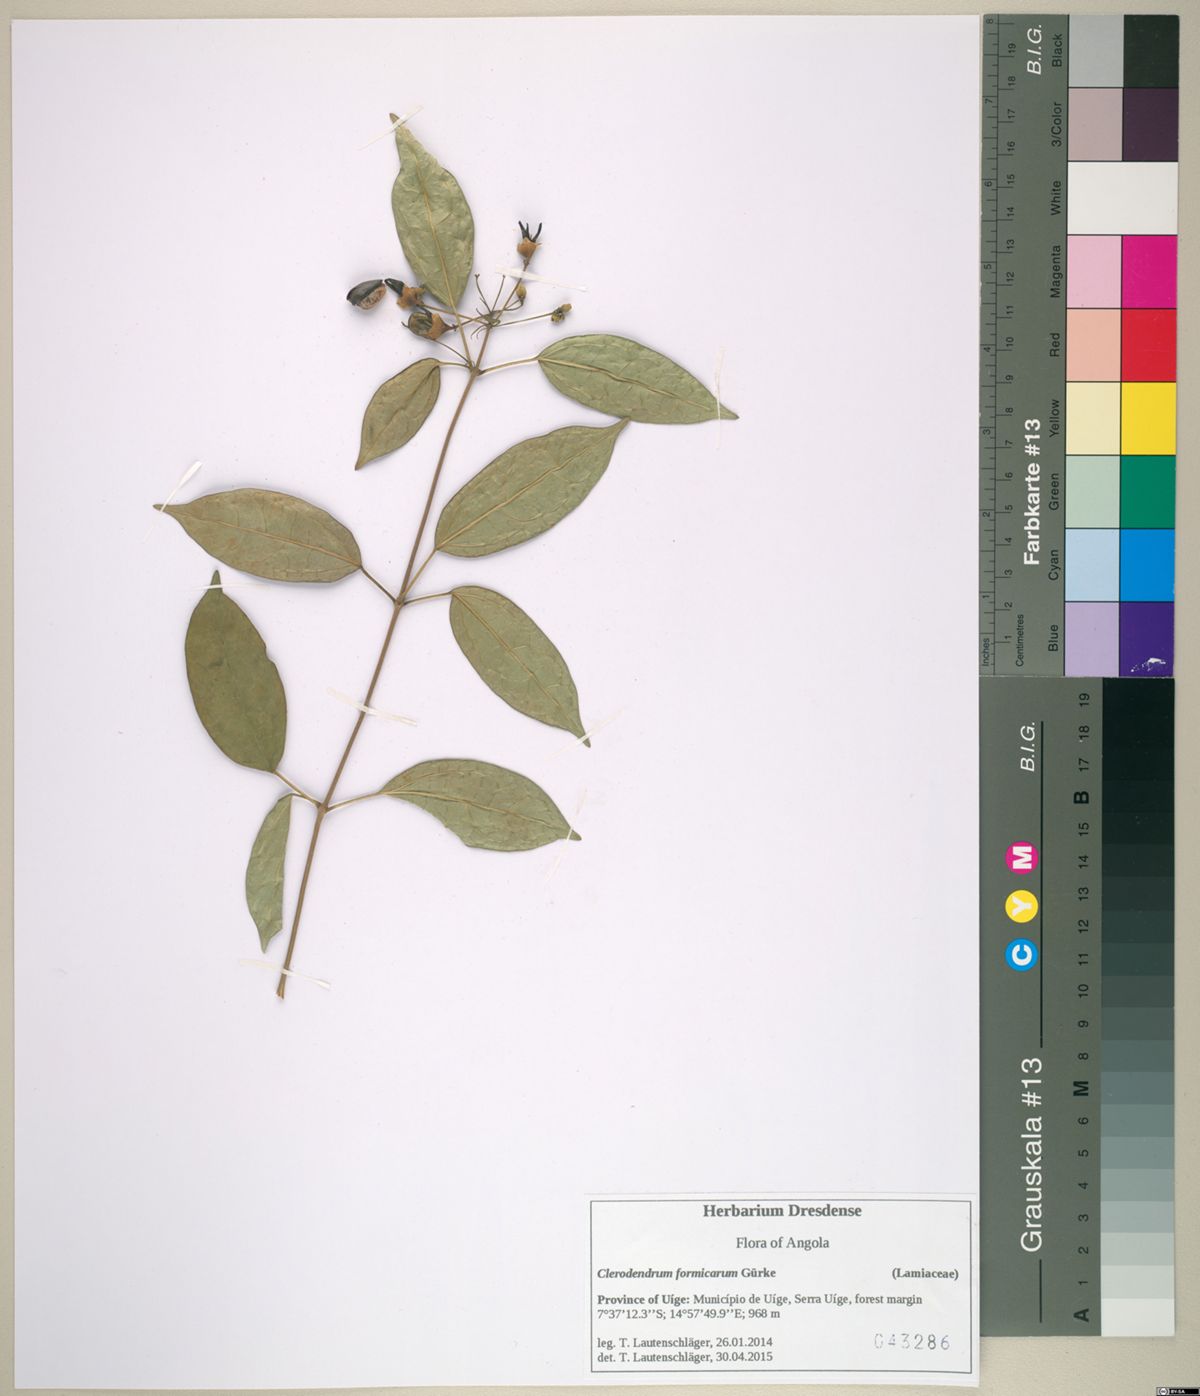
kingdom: Plantae
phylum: Tracheophyta
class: Magnoliopsida
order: Lamiales
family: Lamiaceae
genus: Clerodendrum
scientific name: Clerodendrum formicarum
